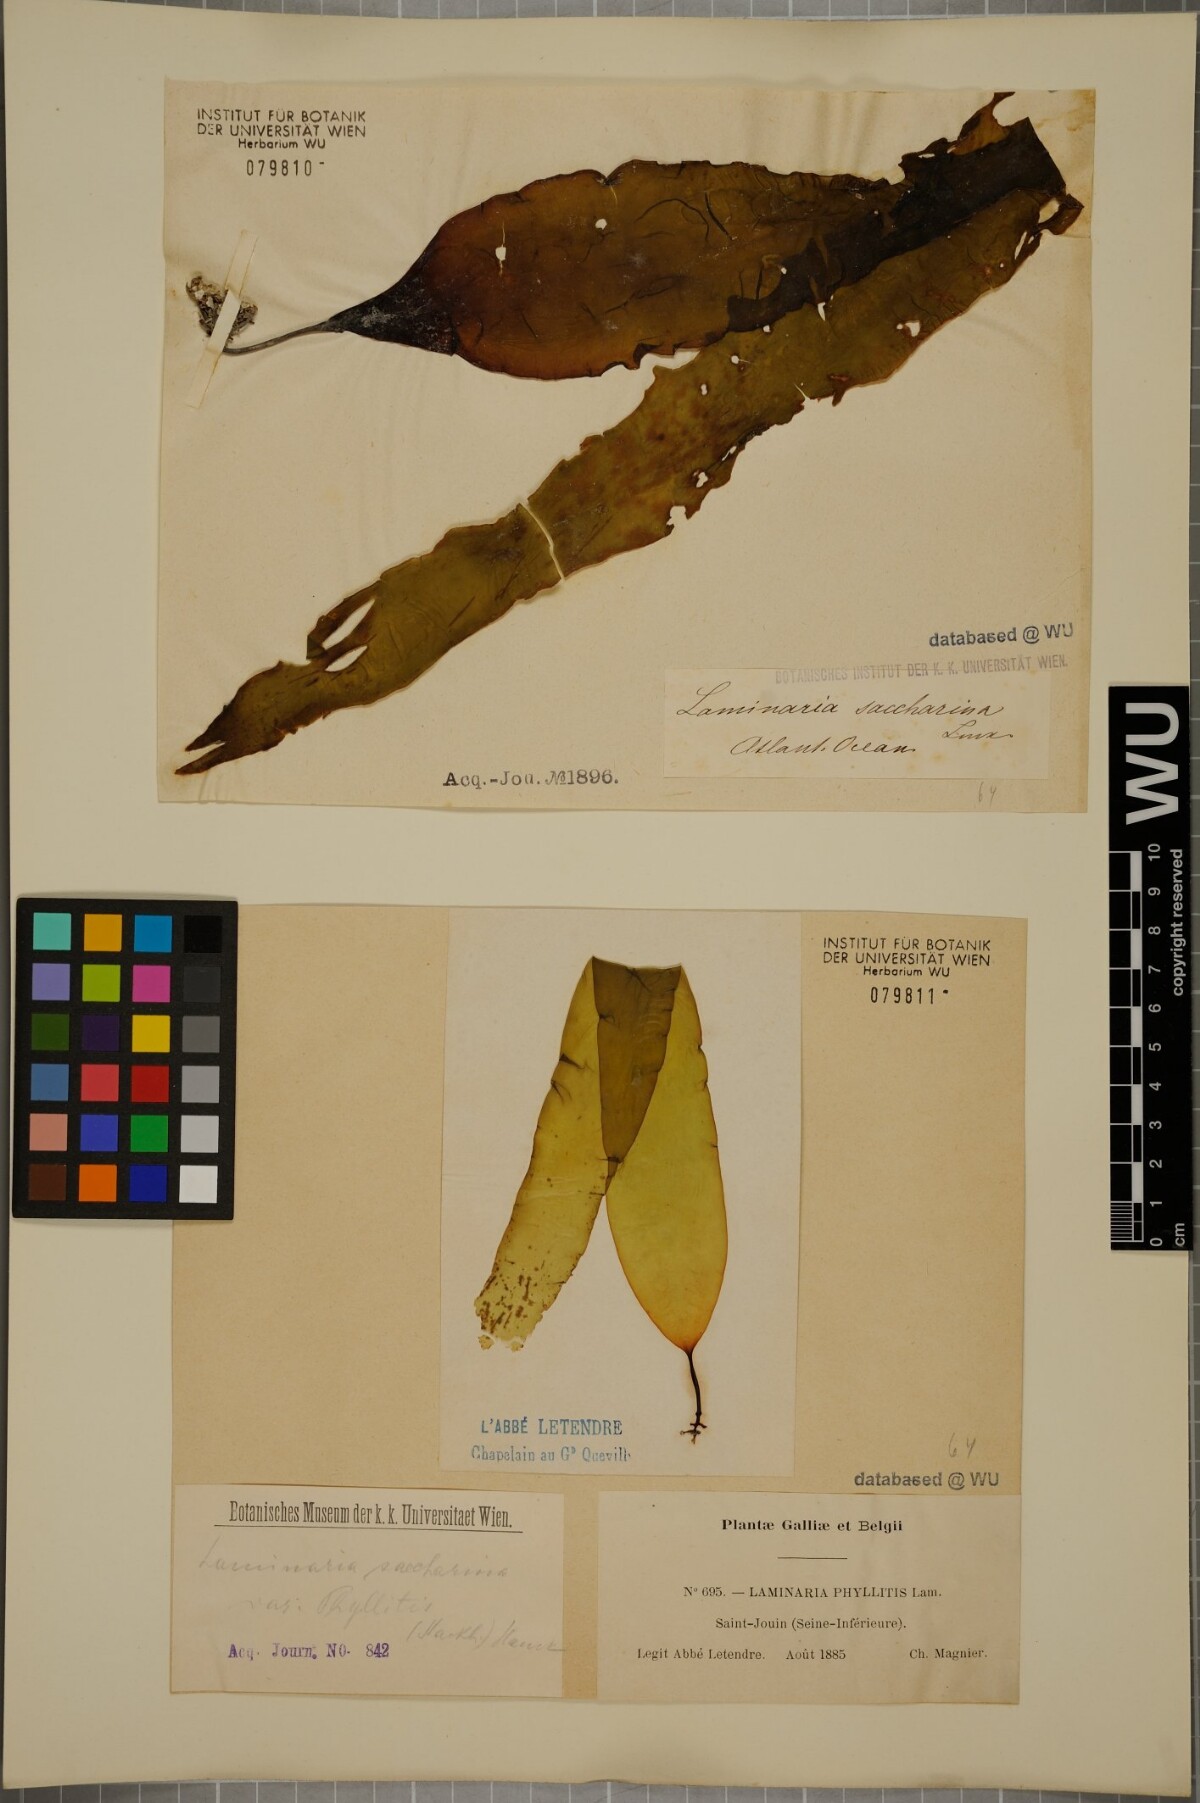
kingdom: Chromista
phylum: Ochrophyta
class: Phaeophyceae
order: Laminariales
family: Laminariaceae
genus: Saccharina
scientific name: Saccharina latissima
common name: Poor man's weather glass
